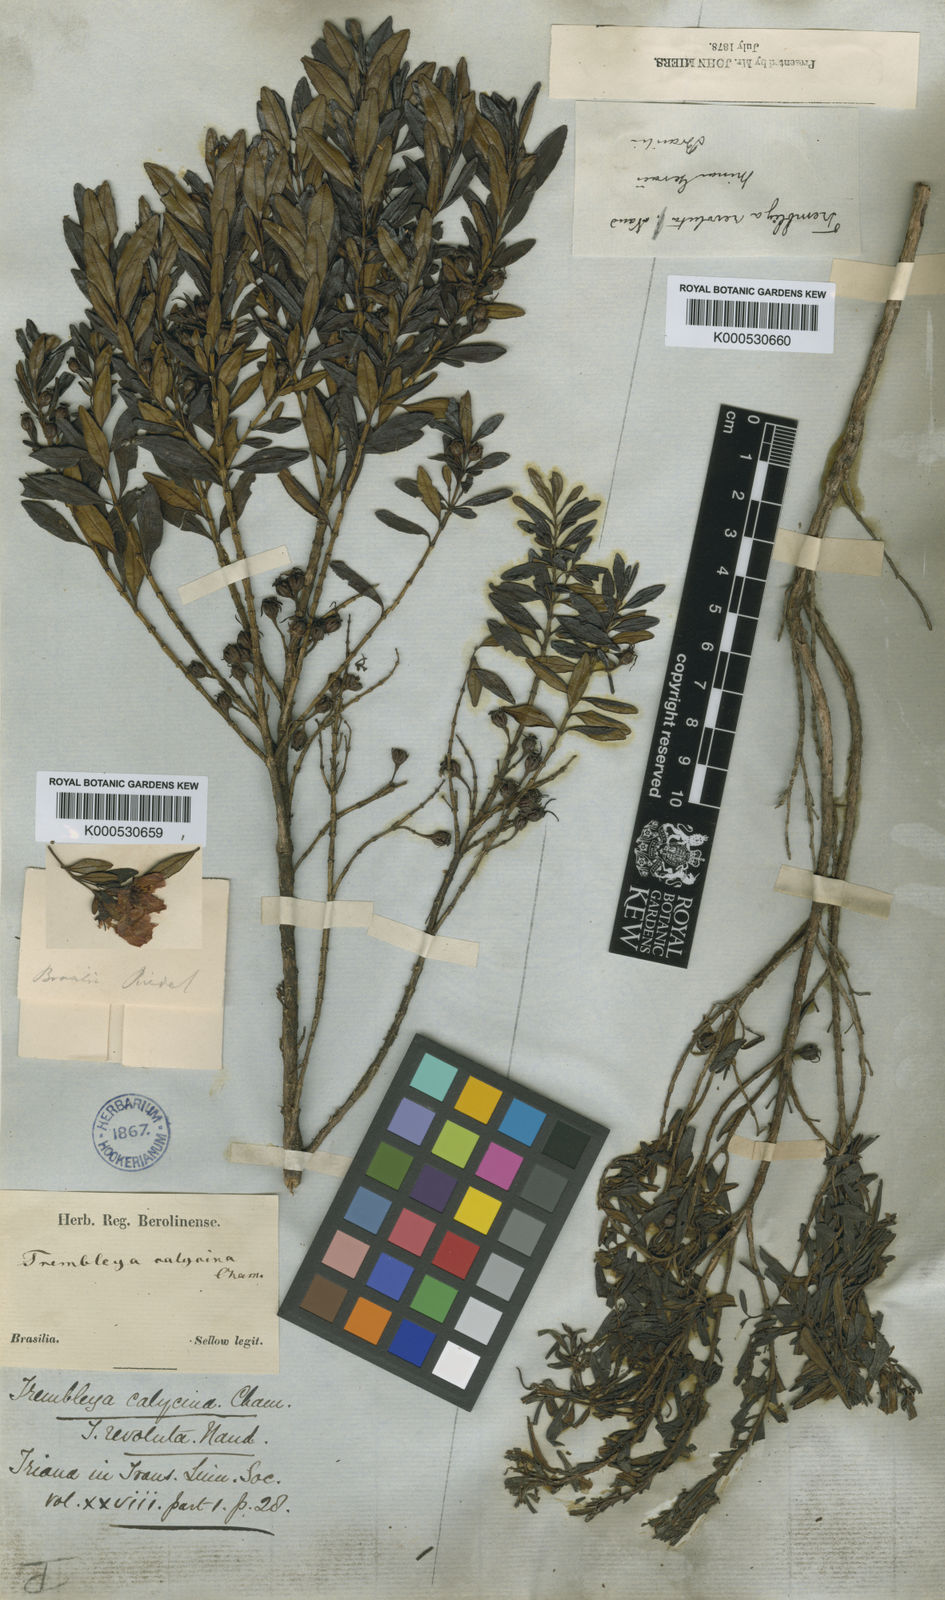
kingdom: Plantae
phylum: Tracheophyta
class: Magnoliopsida
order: Myrtales
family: Melastomataceae
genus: Microlicia
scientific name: Microlicia calycina
